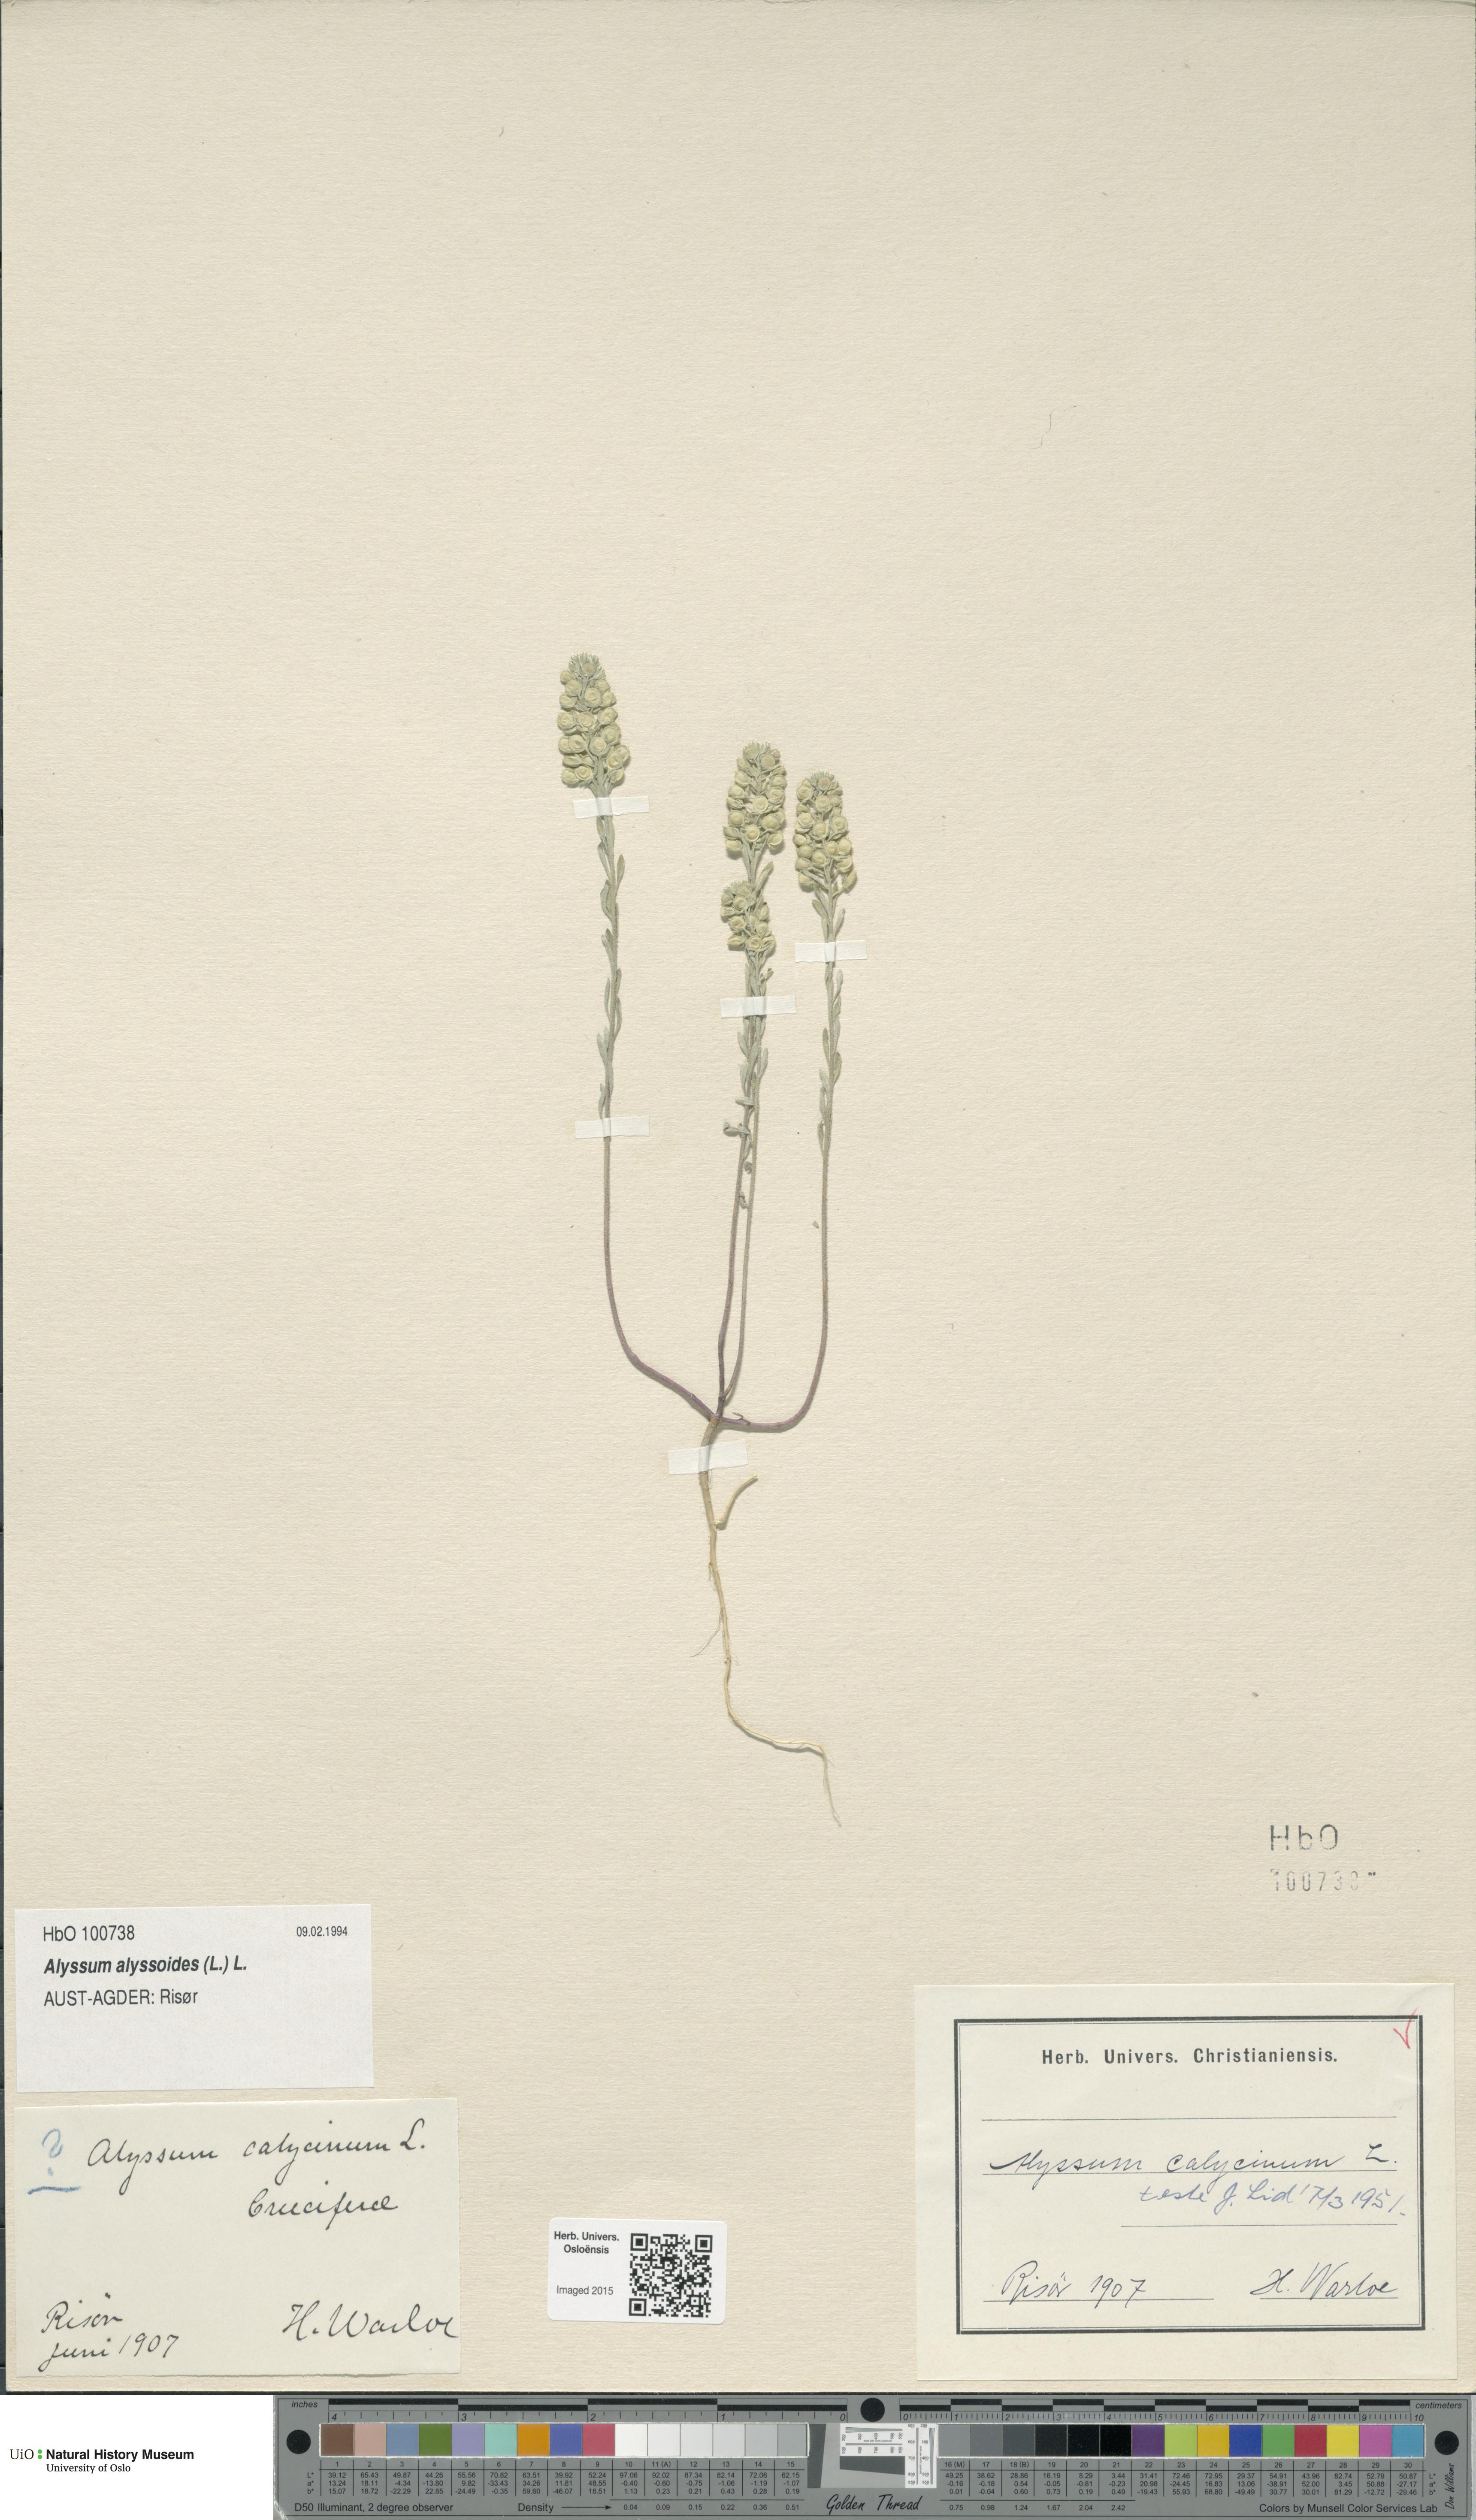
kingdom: Plantae
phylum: Tracheophyta
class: Magnoliopsida
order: Brassicales
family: Brassicaceae
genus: Alyssum
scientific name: Alyssum alyssoides
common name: Small alison
